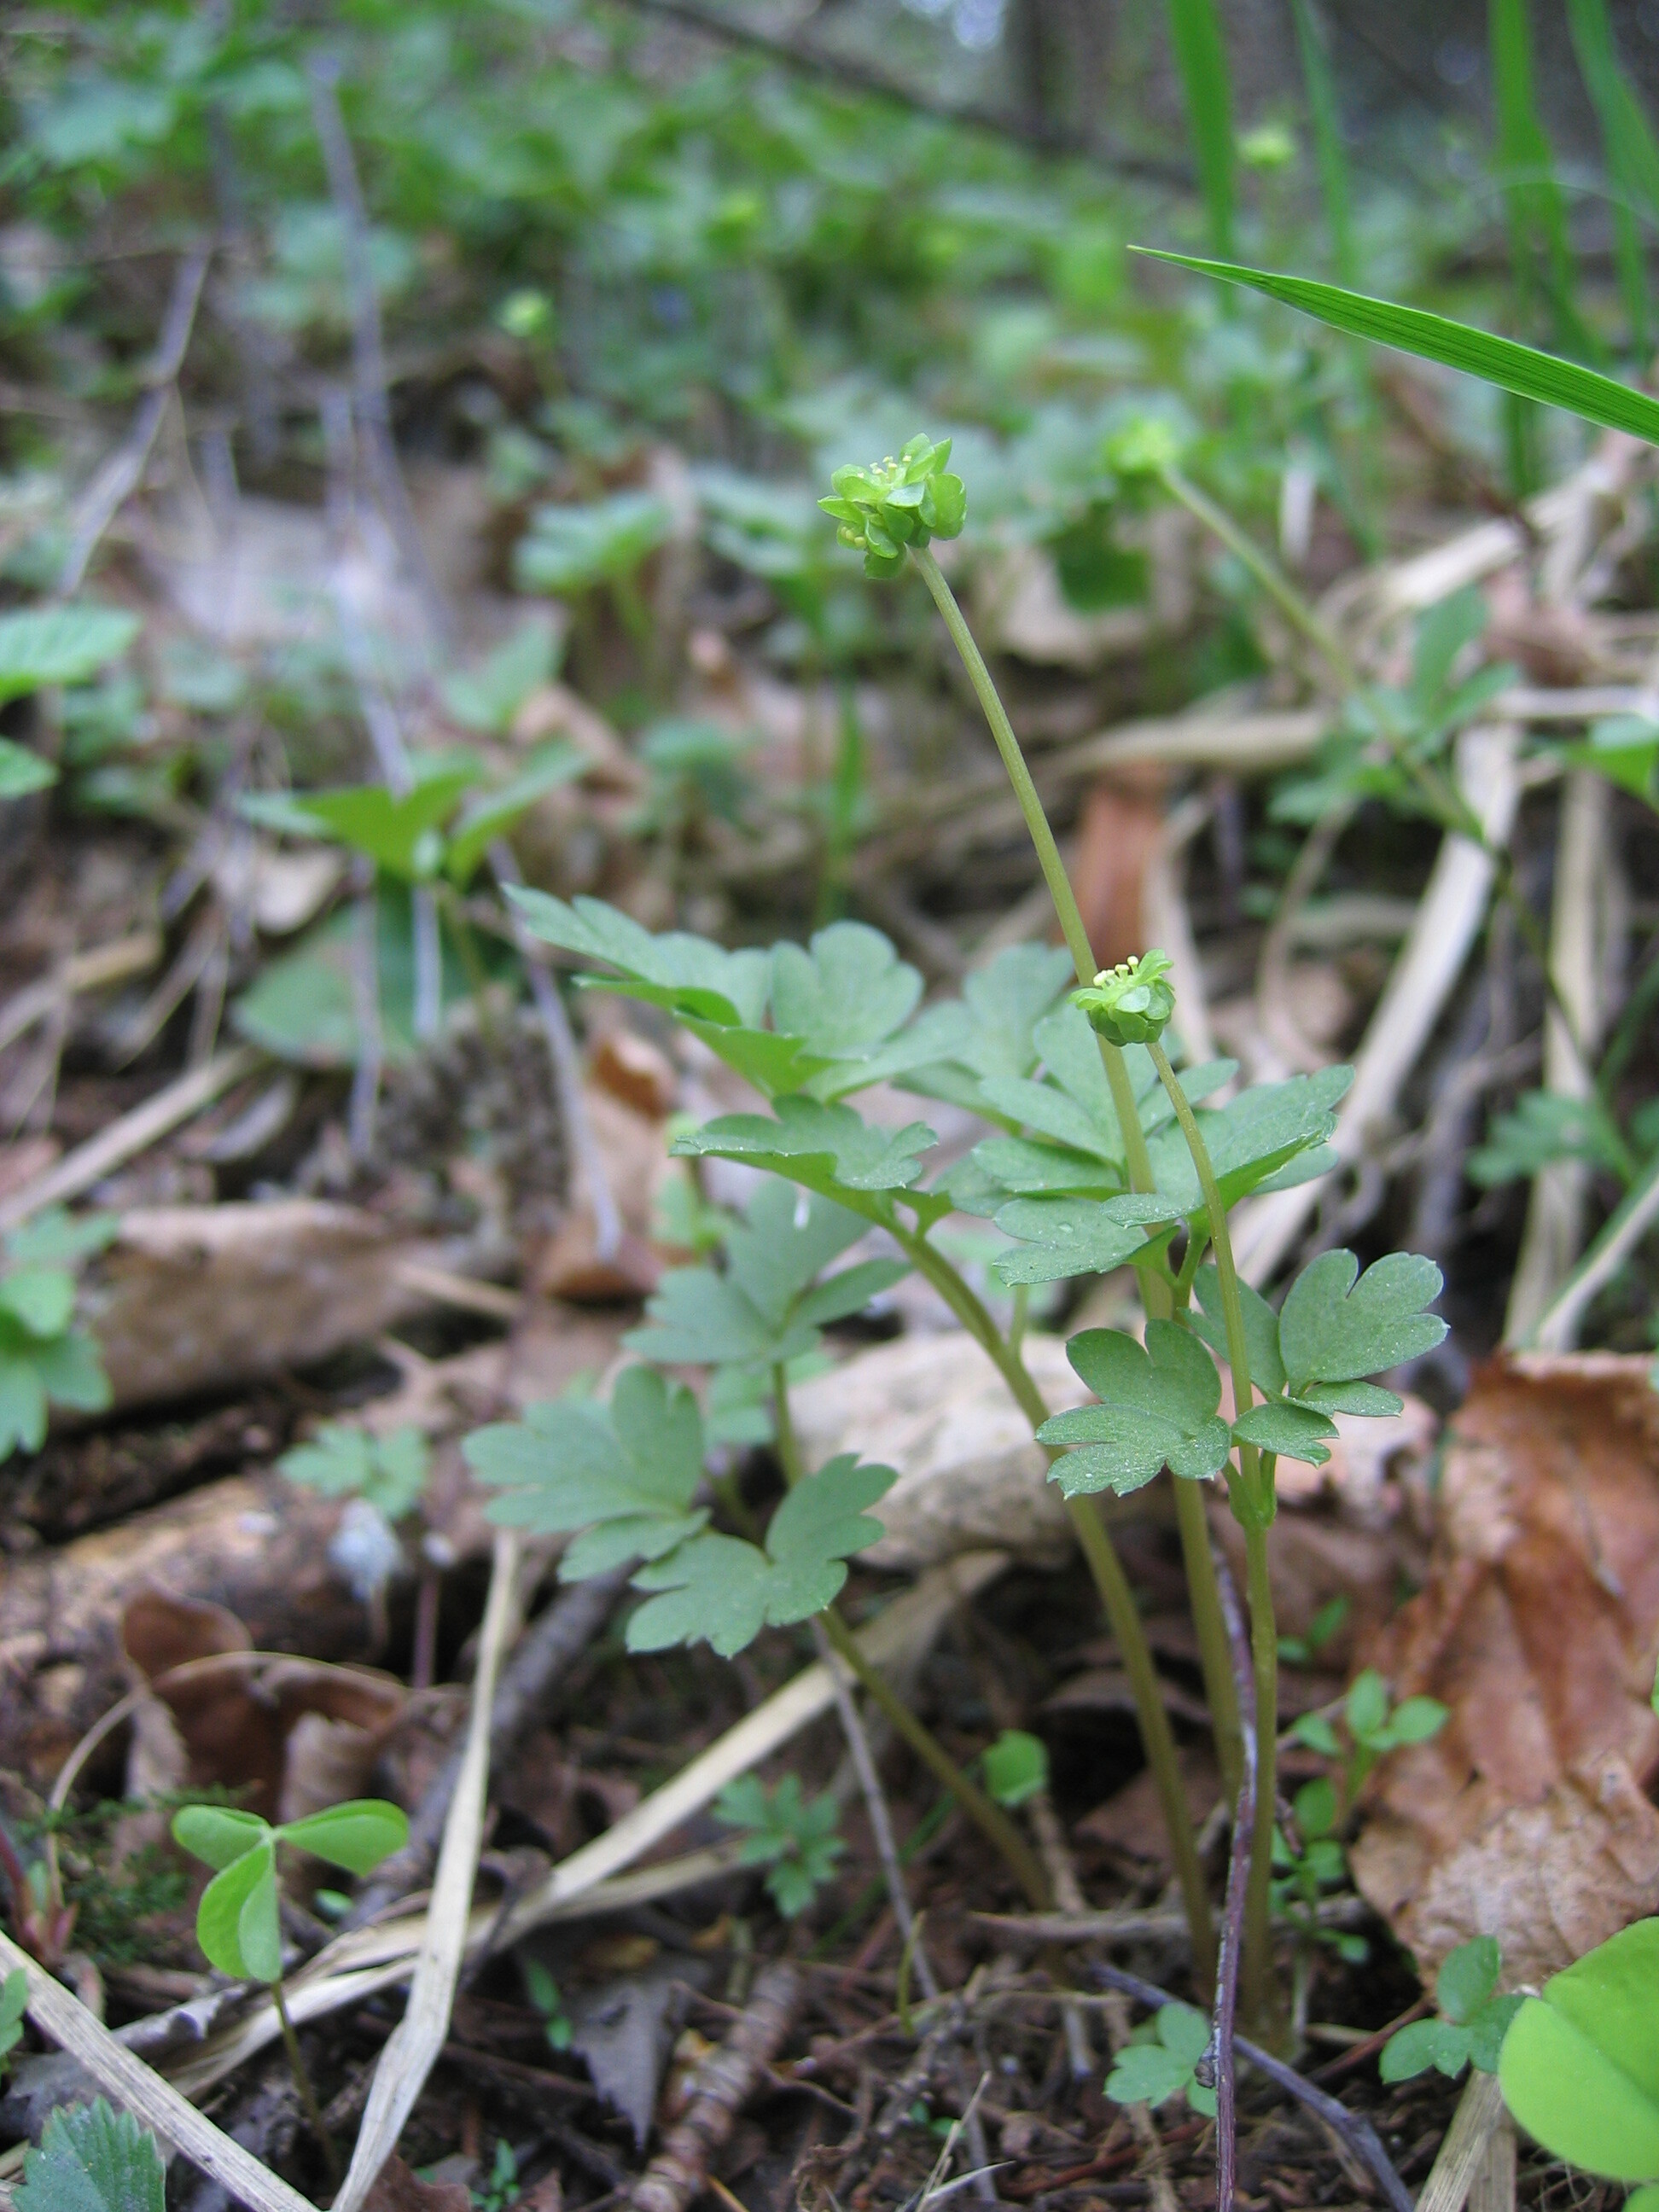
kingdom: Plantae
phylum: Tracheophyta
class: Magnoliopsida
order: Dipsacales
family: Viburnaceae
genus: Adoxa
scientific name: Adoxa moschatellina
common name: Moschatel
